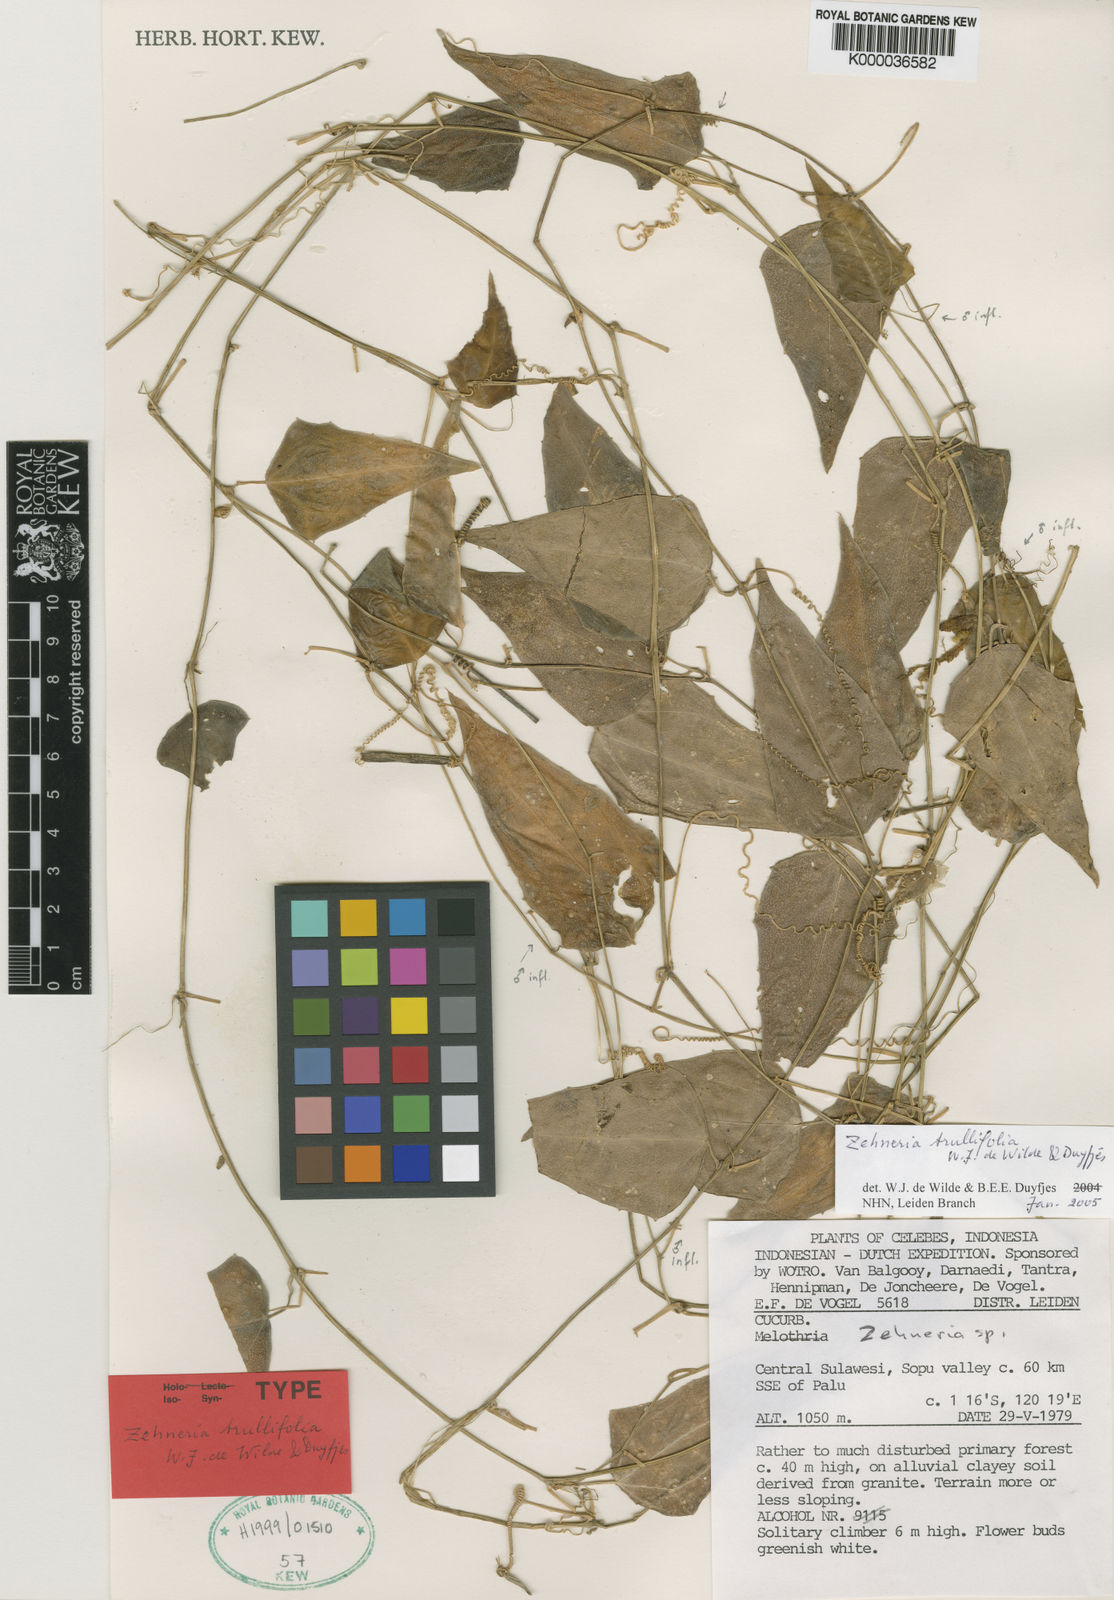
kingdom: Plantae
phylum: Tracheophyta
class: Magnoliopsida
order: Cucurbitales
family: Cucurbitaceae
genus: Zehneria
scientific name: Zehneria trullifolia
